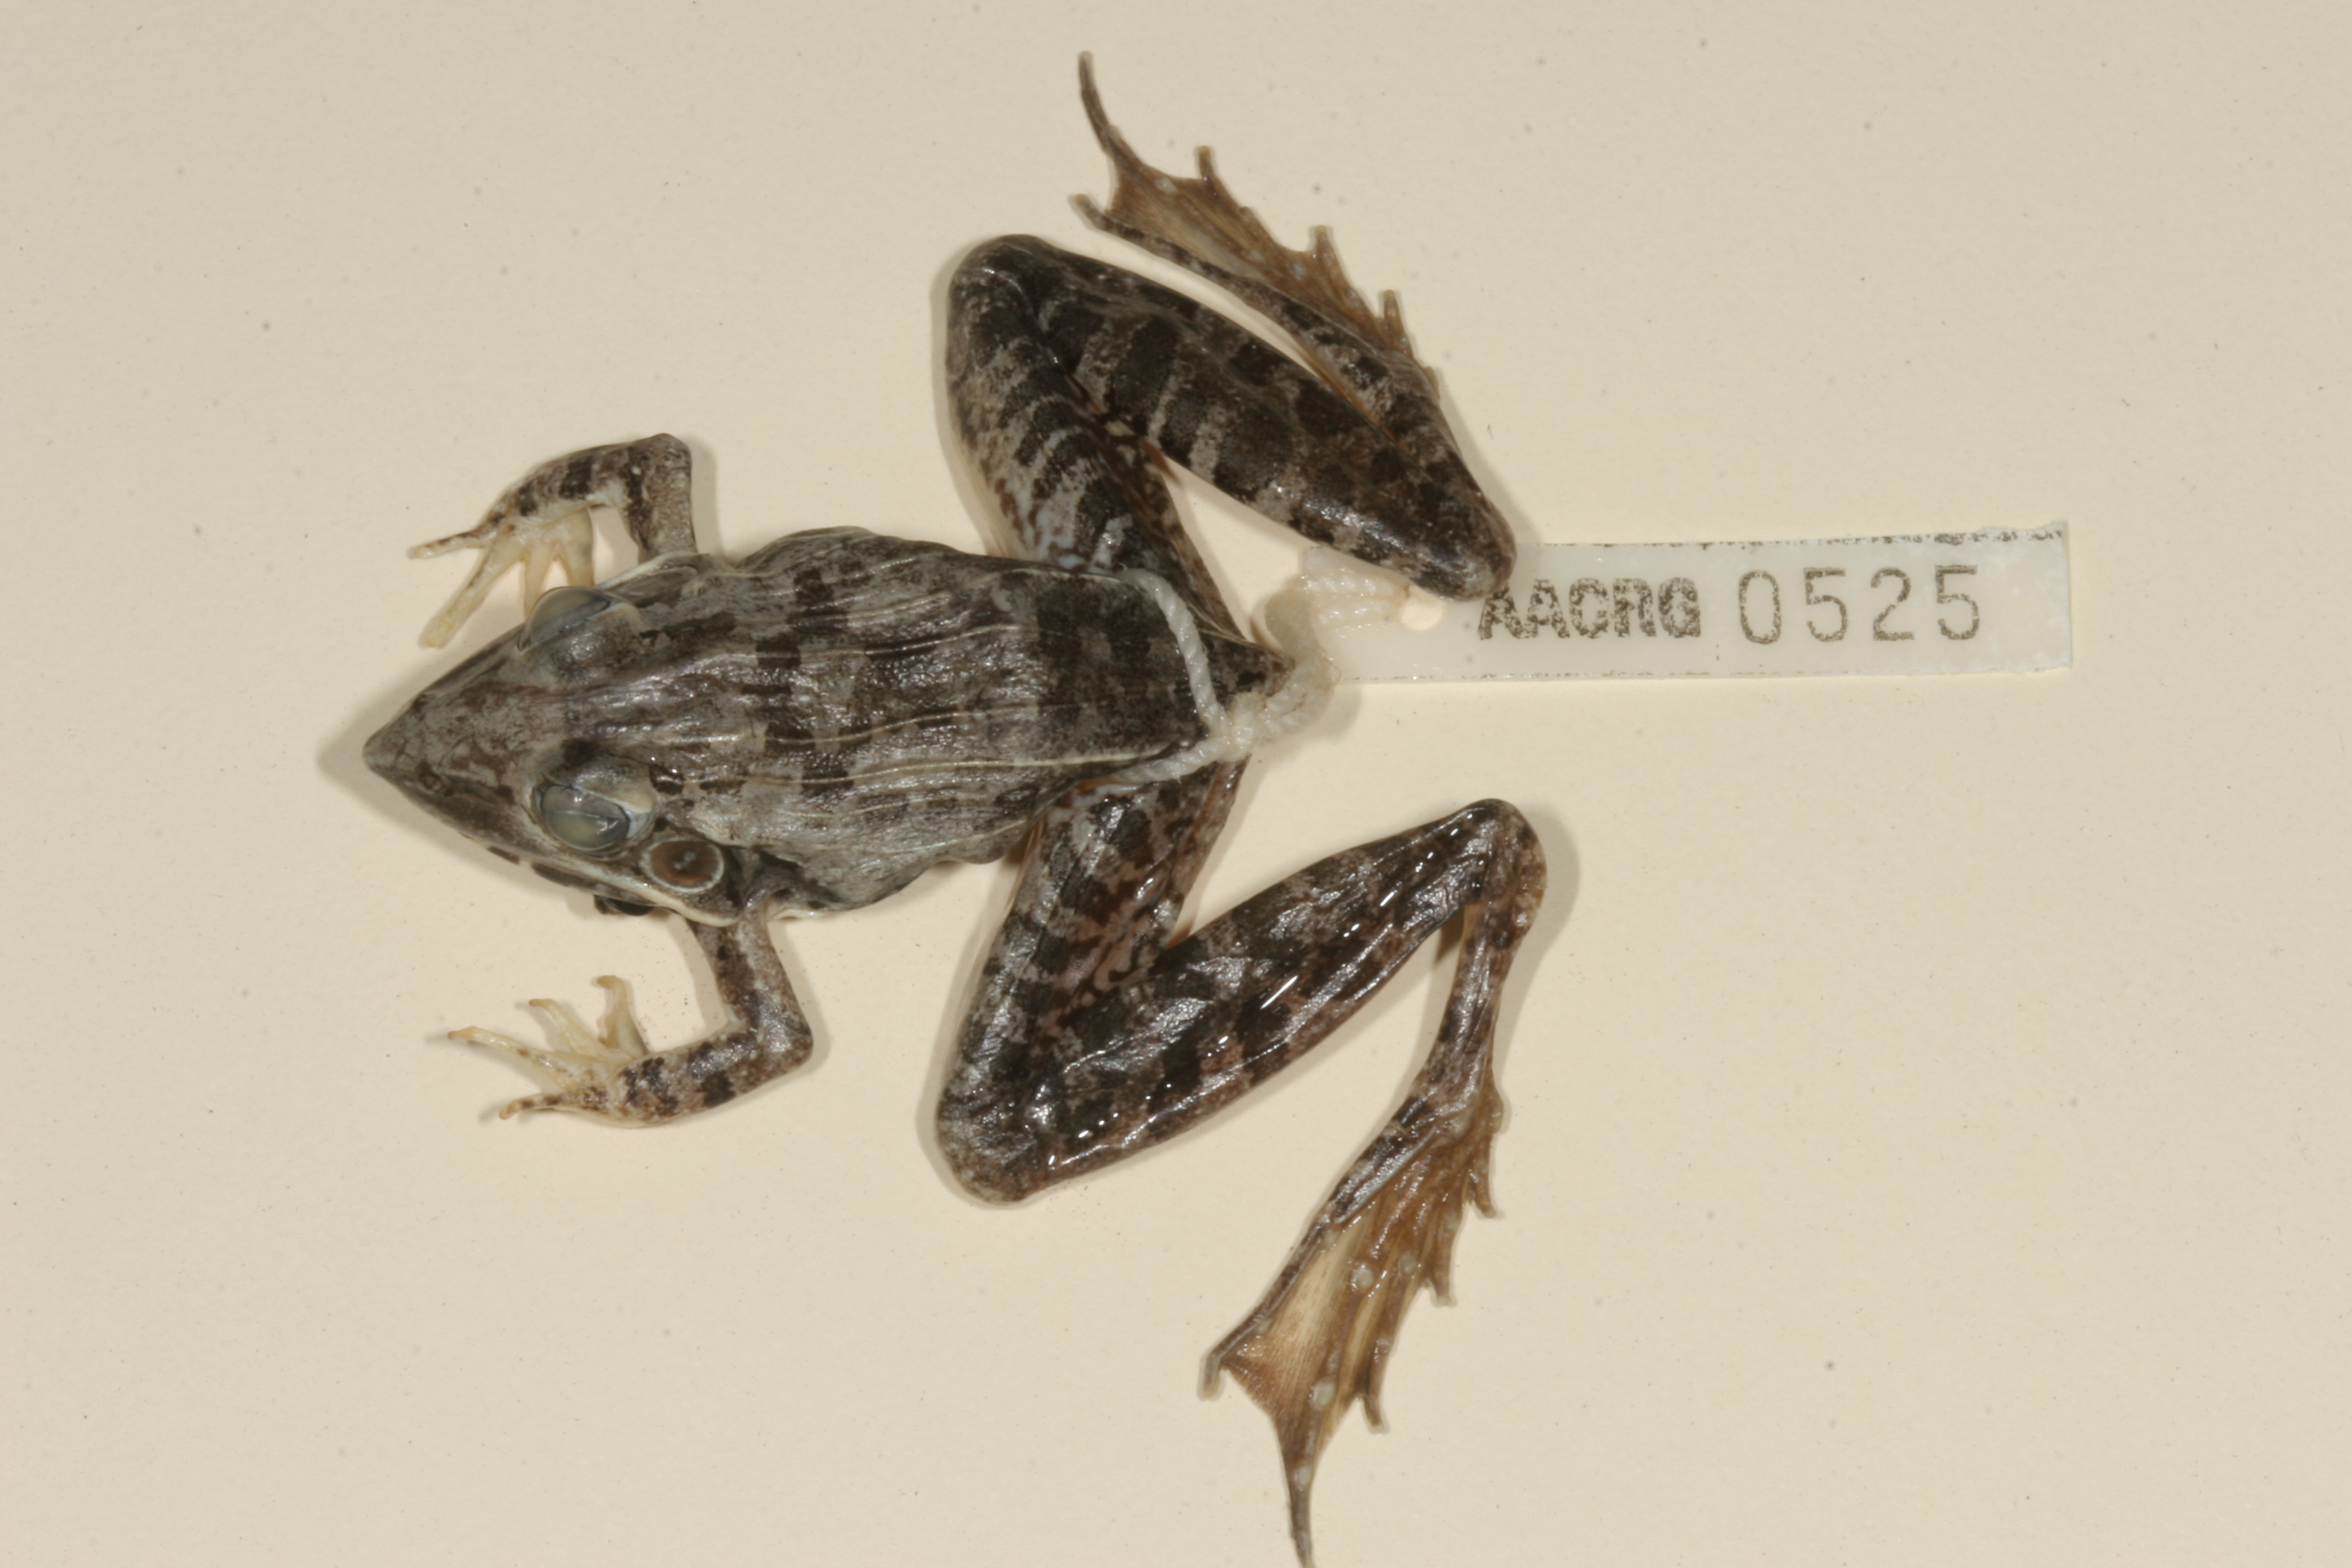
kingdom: Animalia
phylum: Chordata
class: Amphibia
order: Anura
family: Ptychadenidae
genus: Ptychadena
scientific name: Ptychadena oxyrhynchus
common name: Sharp-nosed ridged frog
